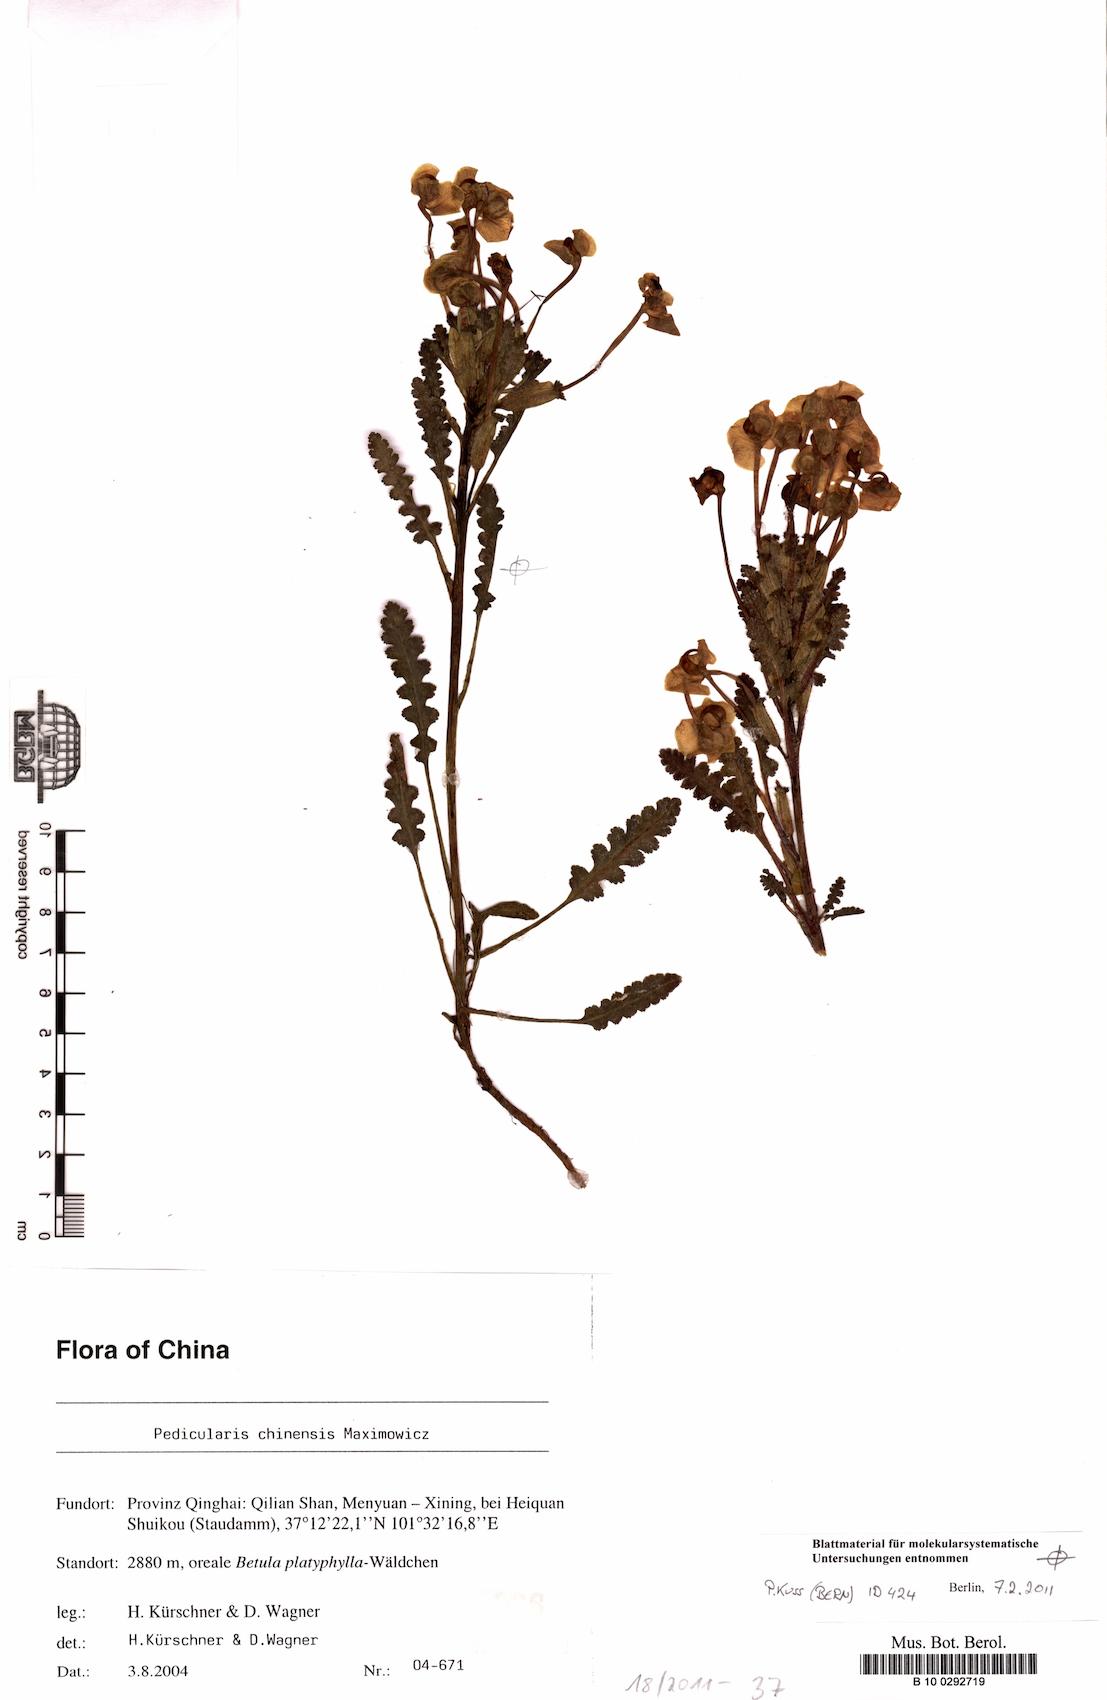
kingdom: Plantae
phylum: Tracheophyta
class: Magnoliopsida
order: Lamiales
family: Orobanchaceae
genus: Pedicularis
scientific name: Pedicularis chinensis
